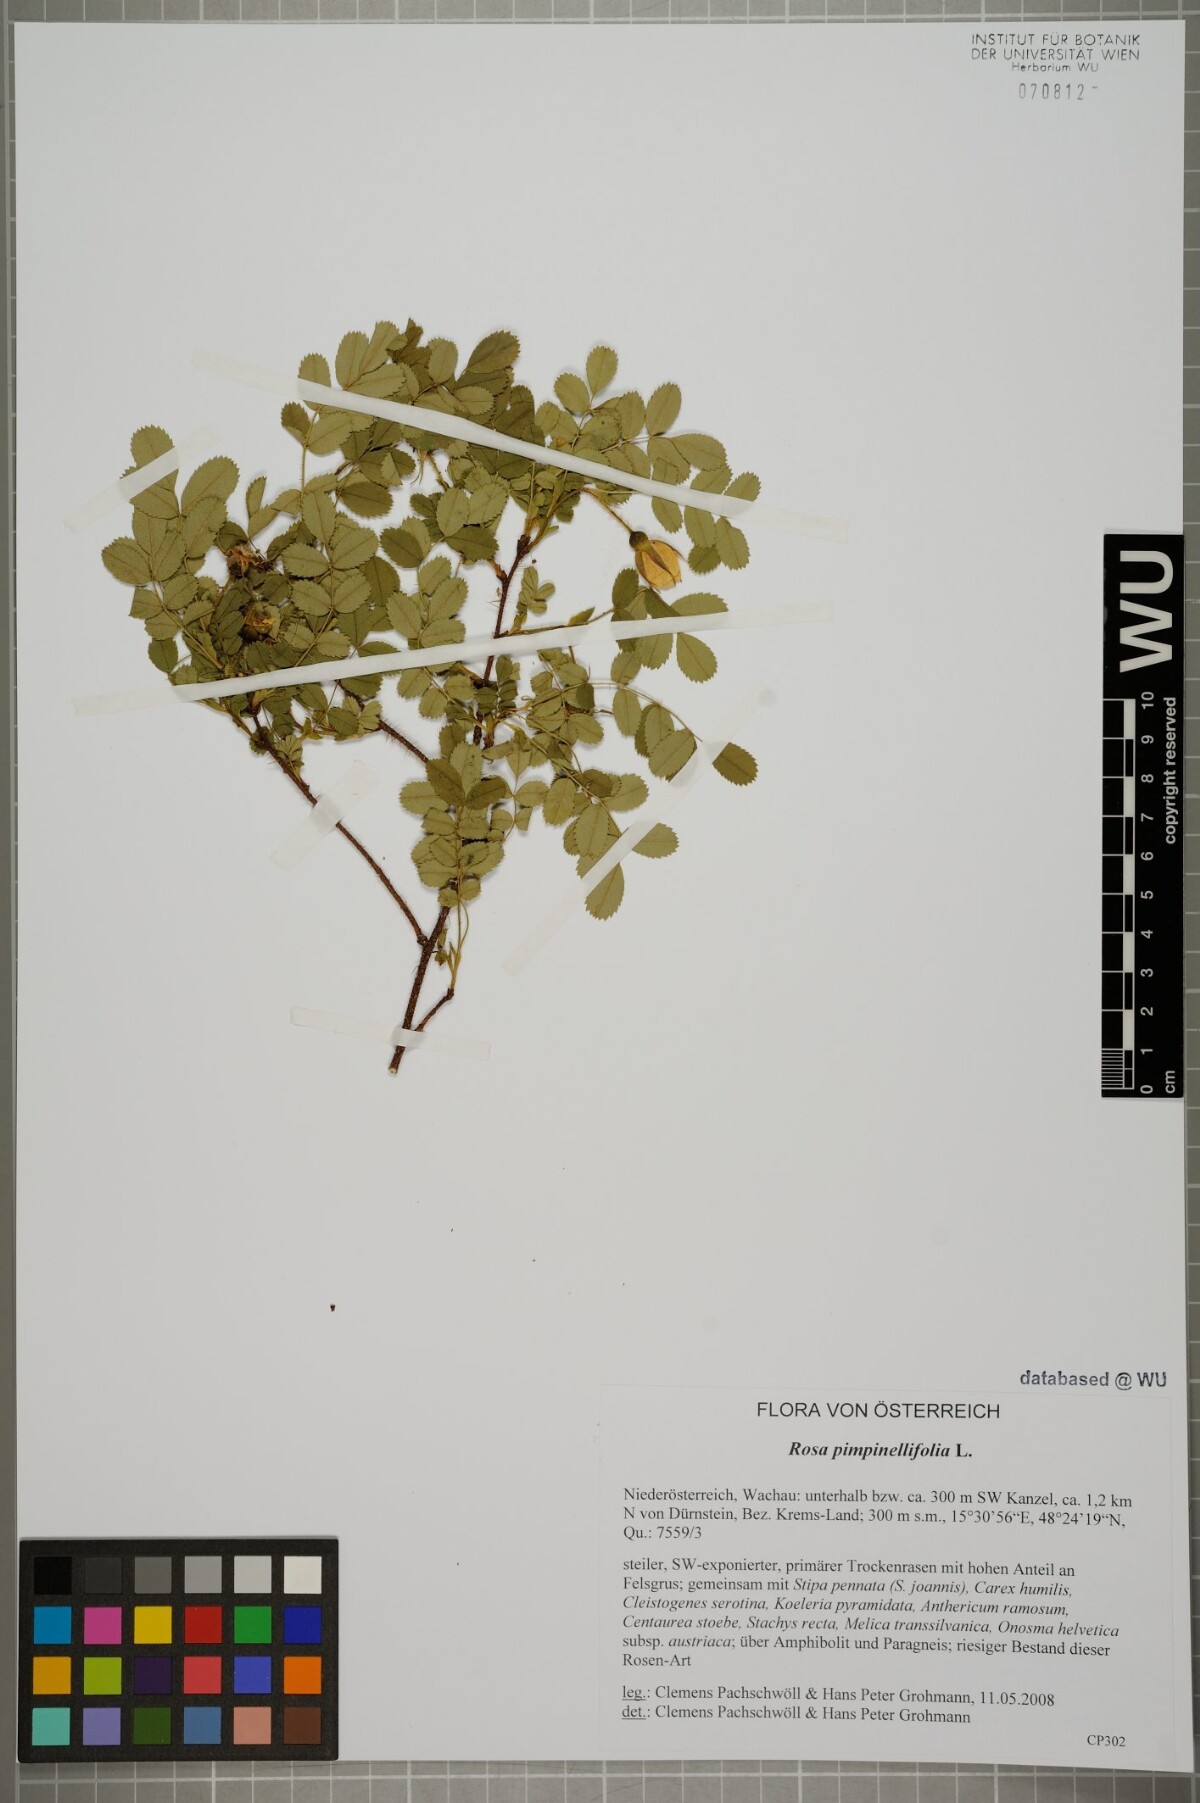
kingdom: Plantae
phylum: Tracheophyta
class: Magnoliopsida
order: Rosales
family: Rosaceae
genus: Rosa
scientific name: Rosa spinosissima
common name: Burnet rose
